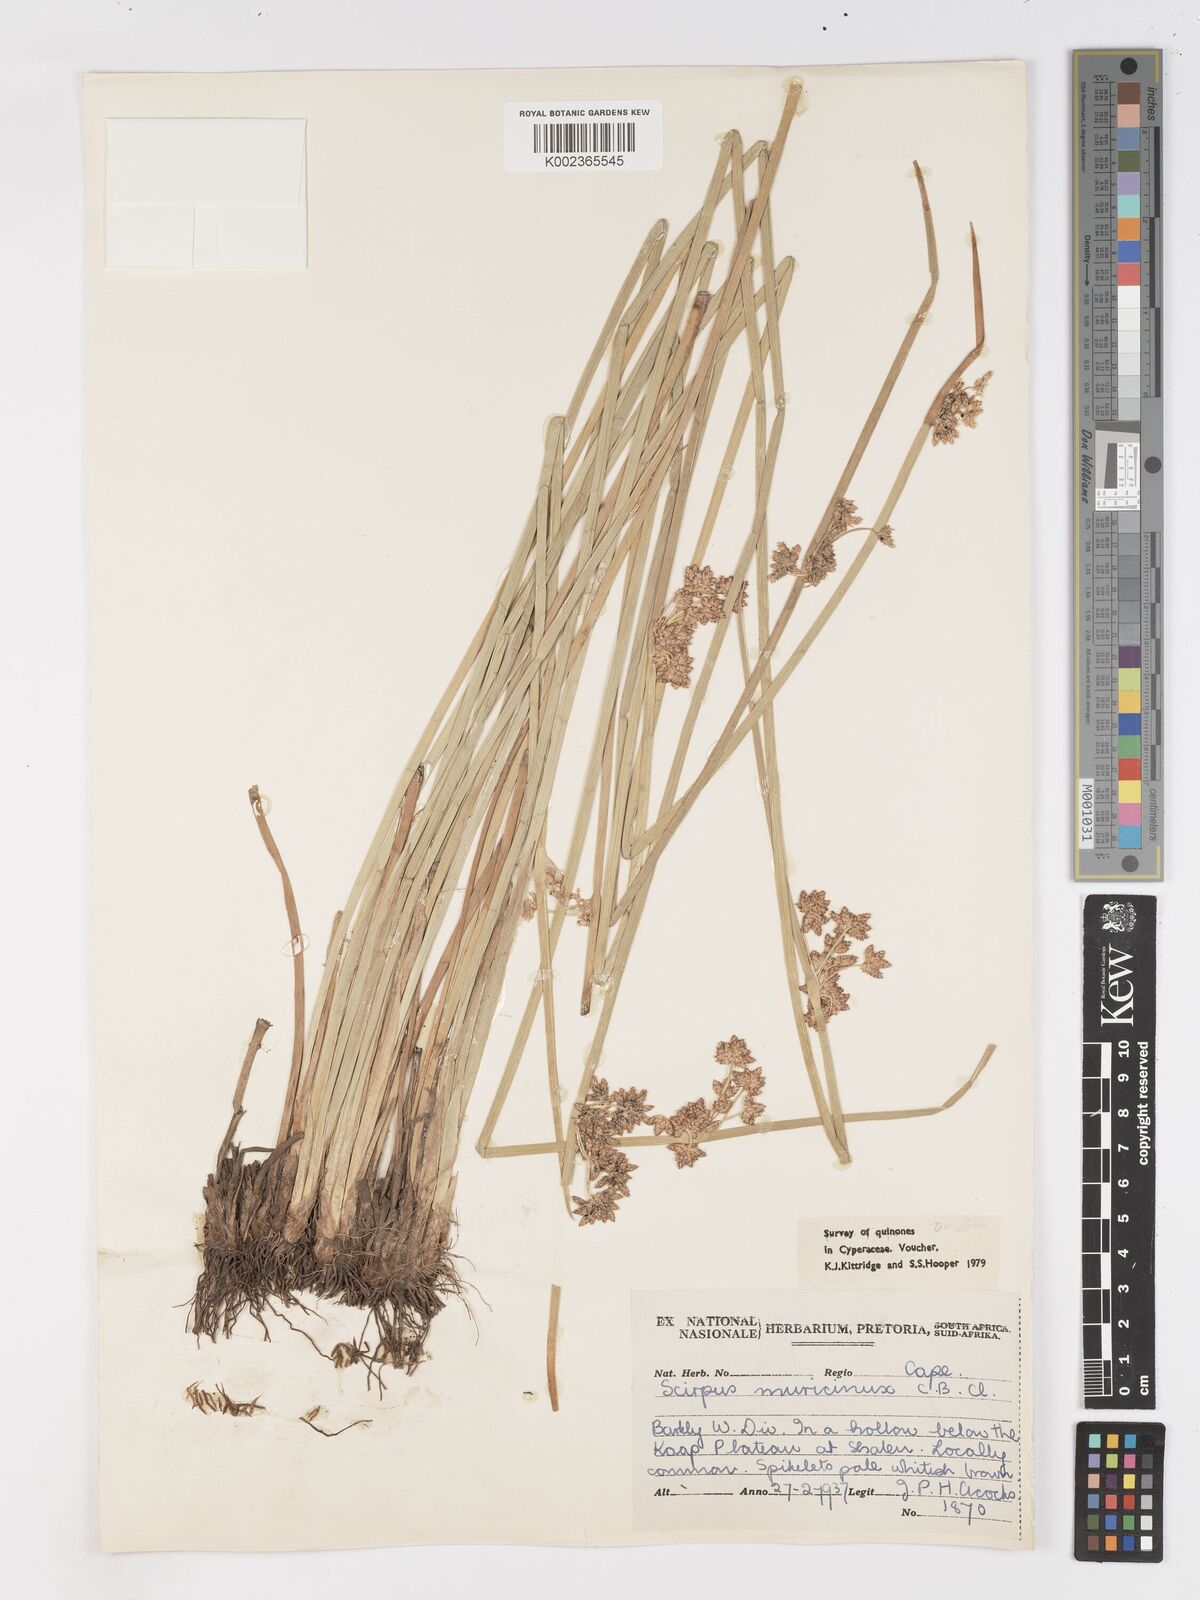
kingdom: Plantae
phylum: Tracheophyta
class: Liliopsida
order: Poales
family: Cyperaceae
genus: Schoenoplectiella
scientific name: Schoenoplectiella muricinux
